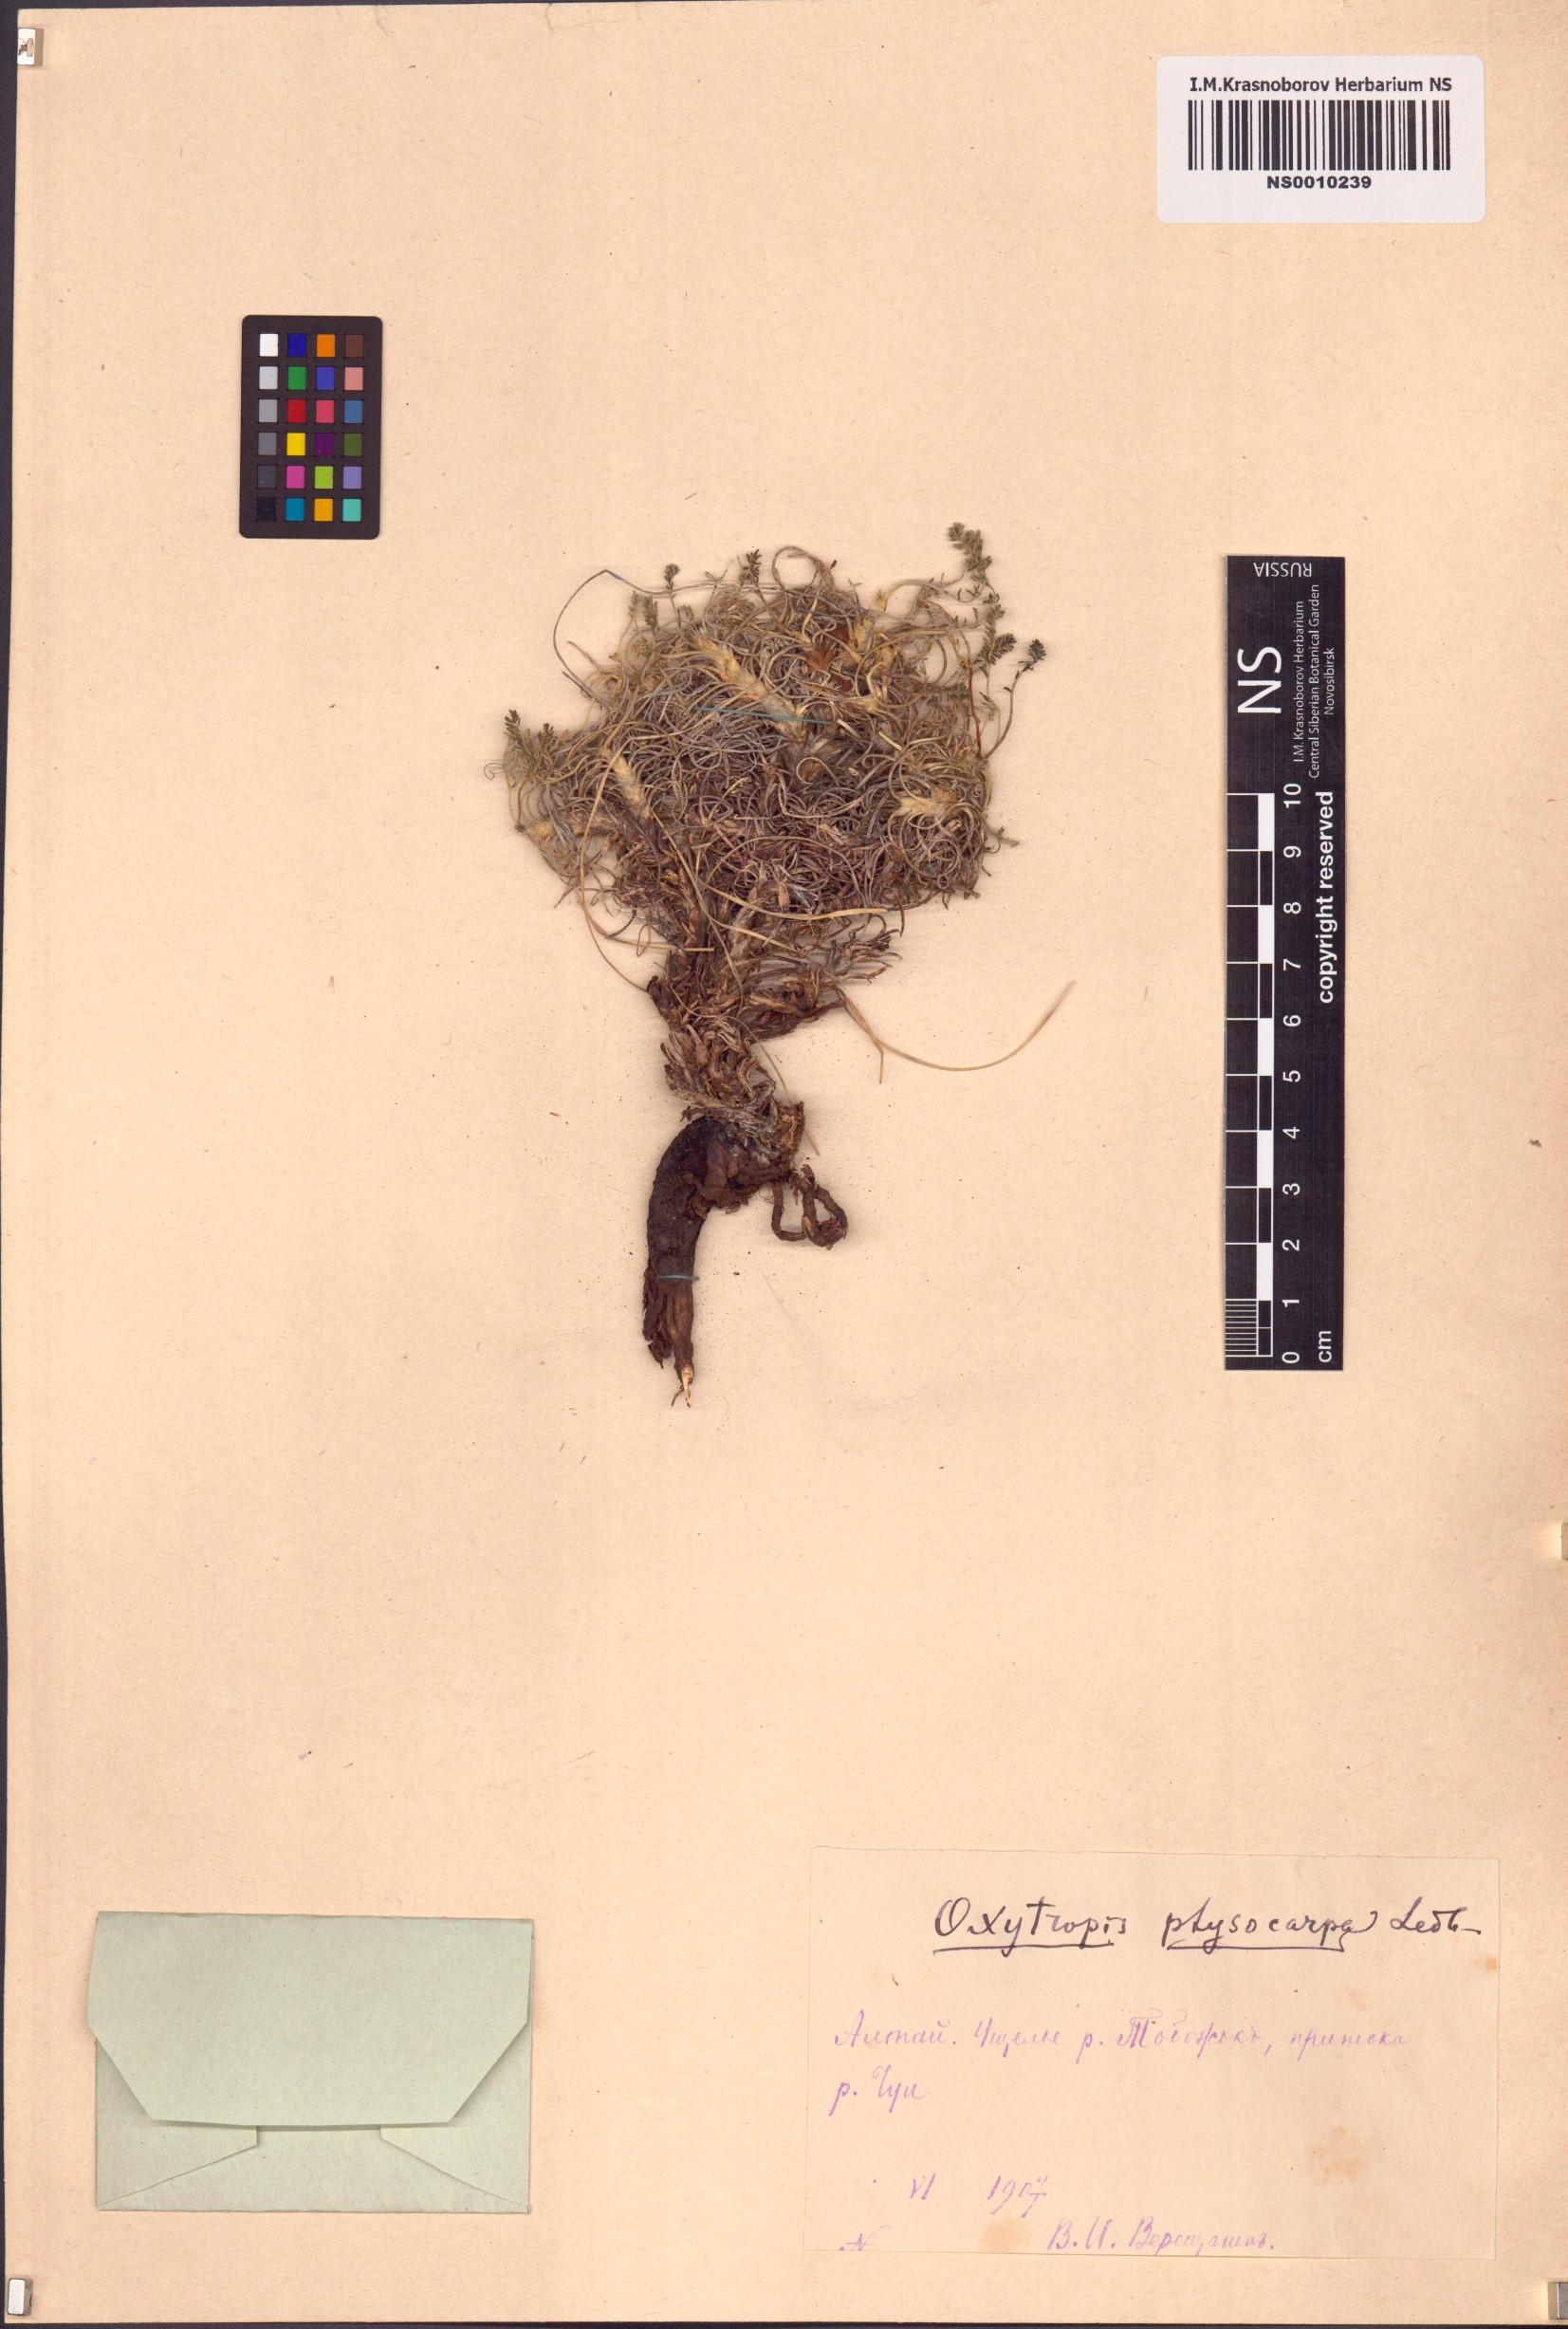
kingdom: Plantae
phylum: Tracheophyta
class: Magnoliopsida
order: Fabales
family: Fabaceae
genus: Oxytropis
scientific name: Oxytropis physocarpa
